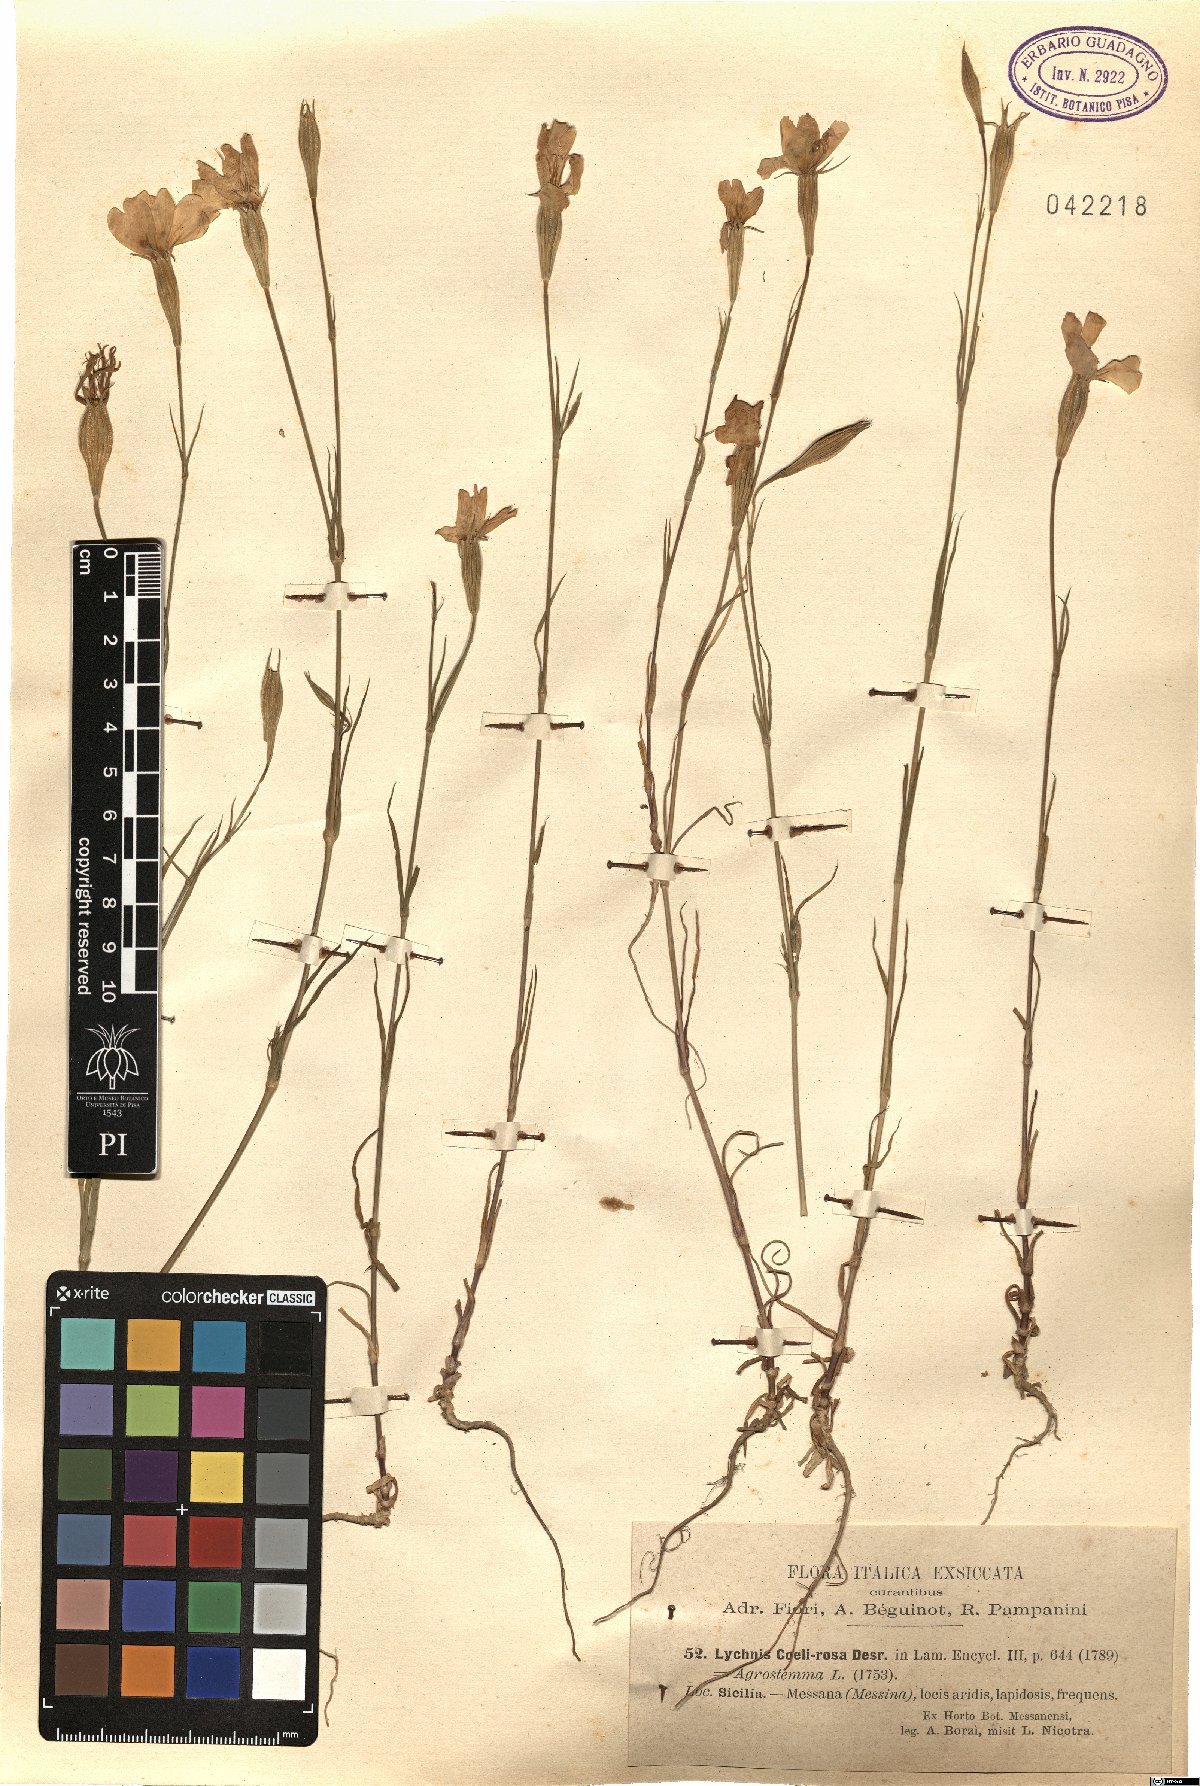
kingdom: Plantae
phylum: Tracheophyta
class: Magnoliopsida
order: Caryophyllales
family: Caryophyllaceae
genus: Eudianthe
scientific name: Eudianthe coeli-rosa
